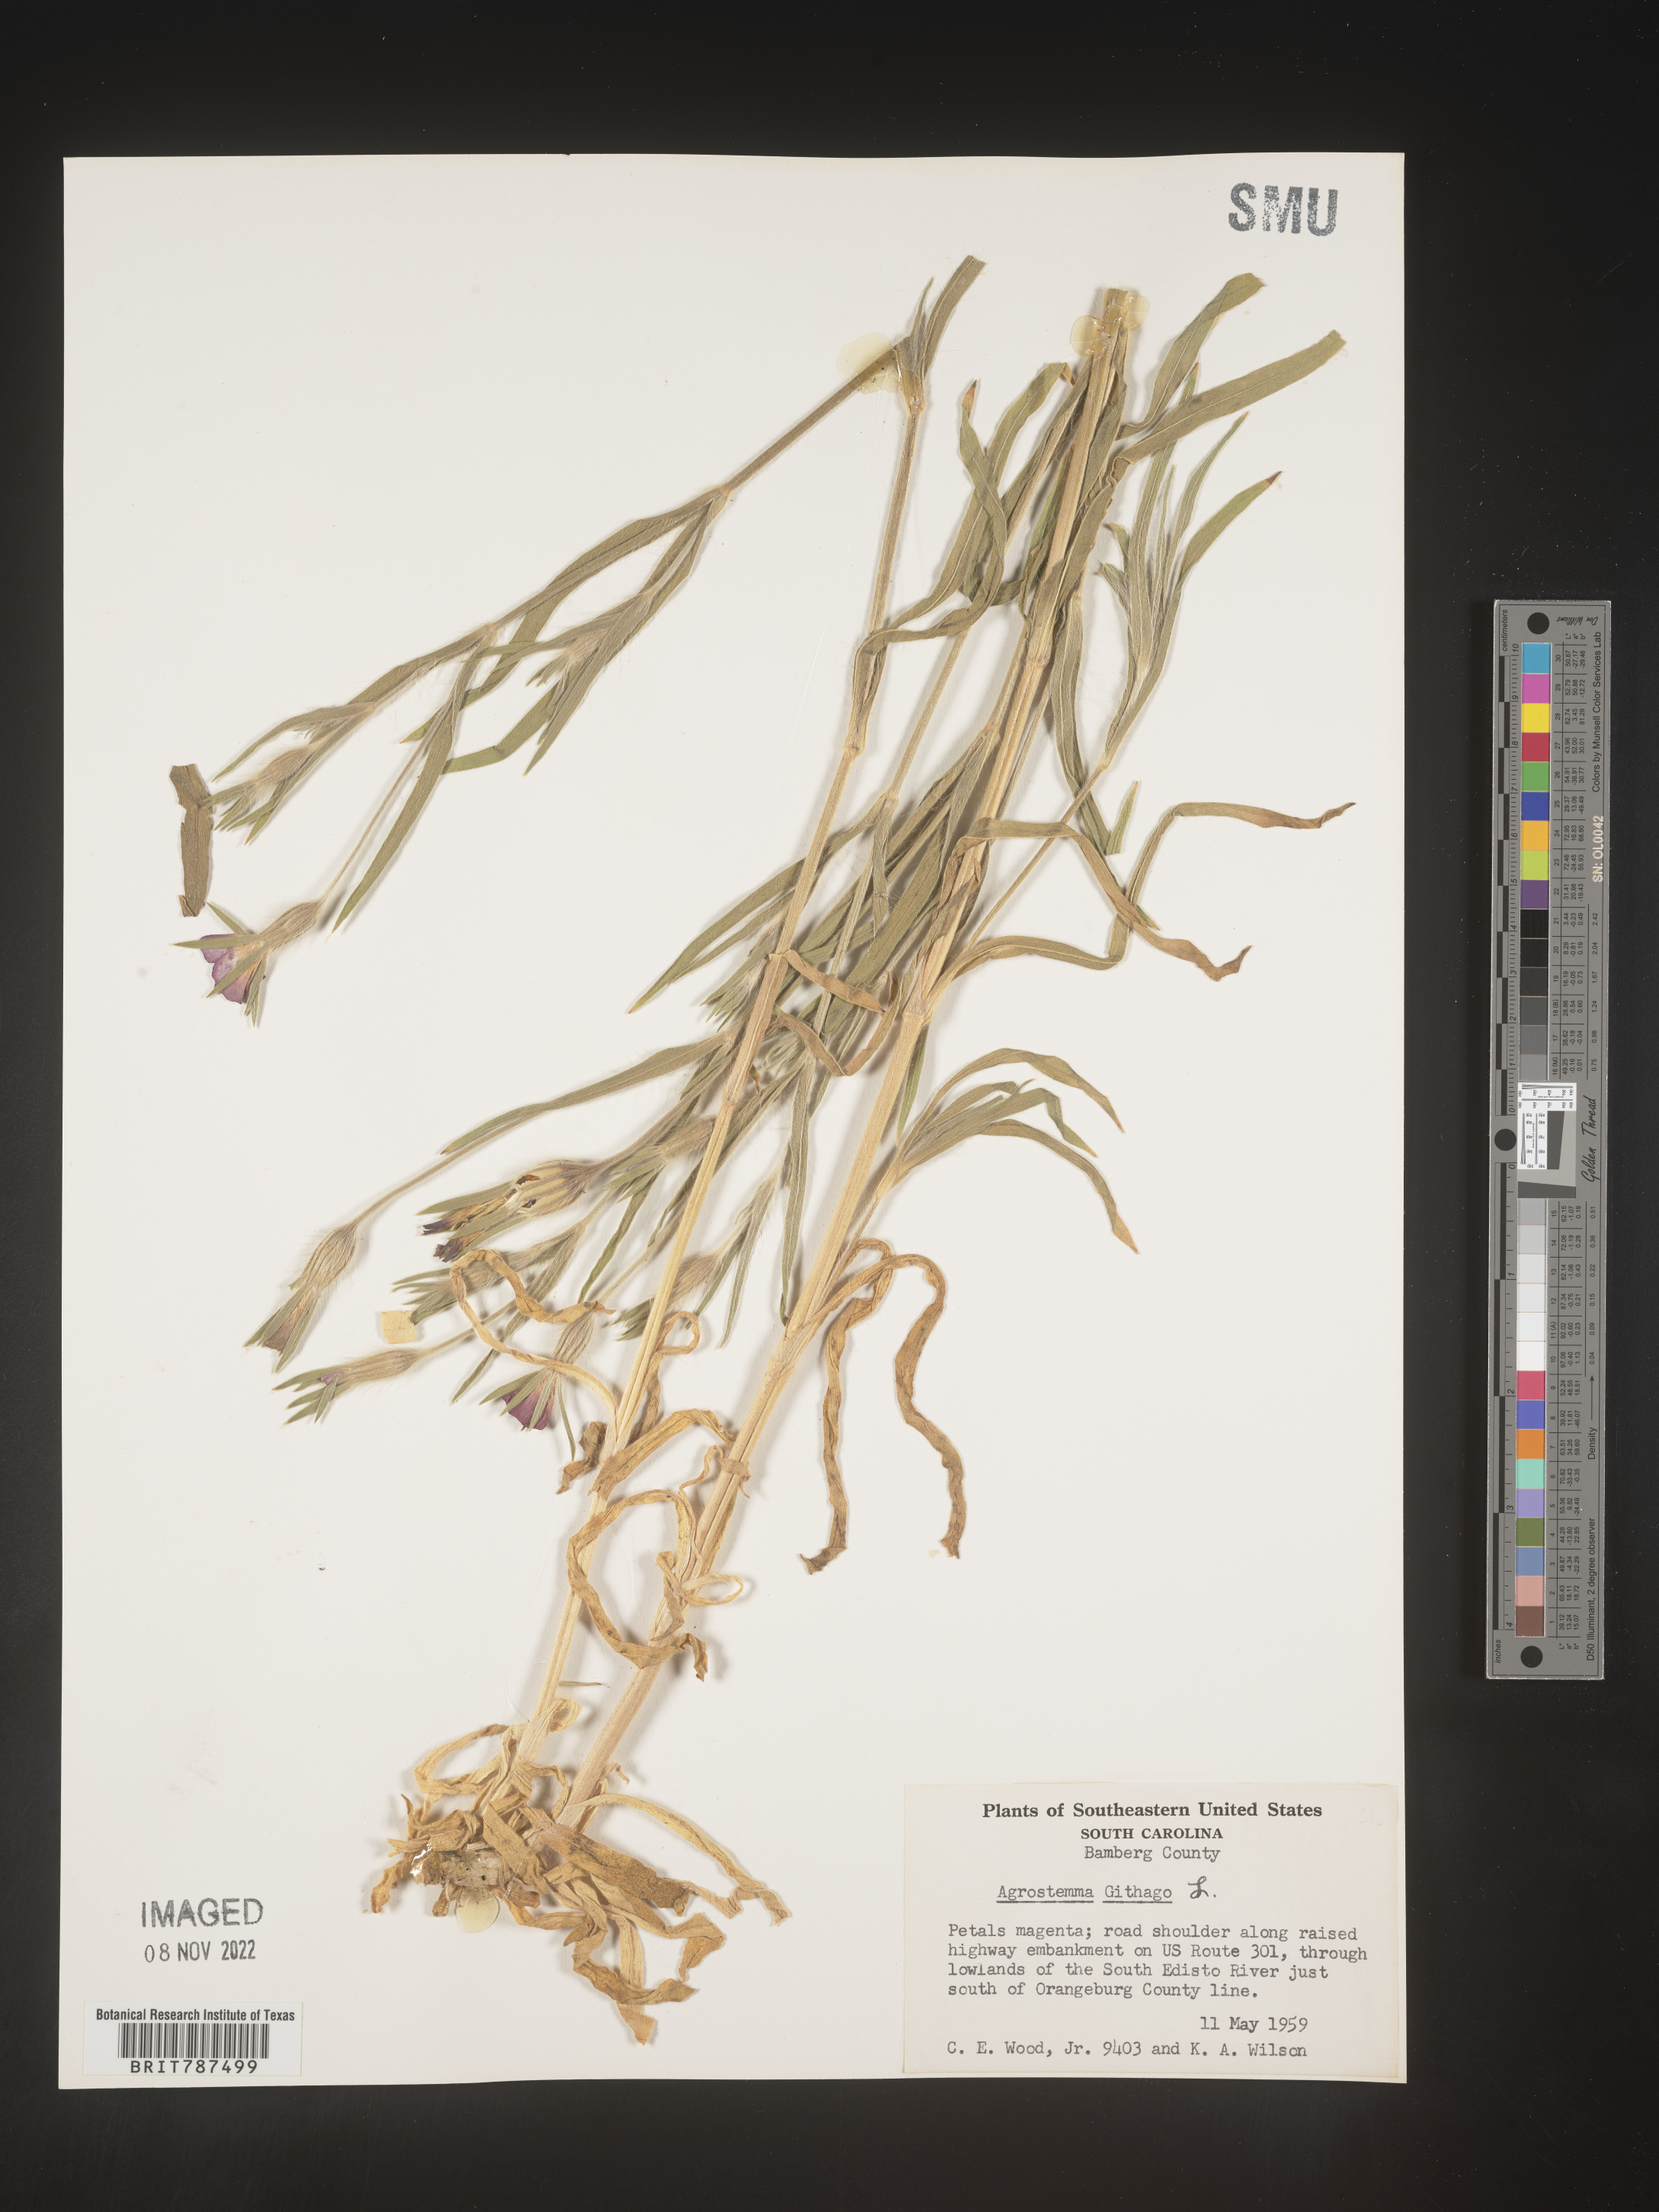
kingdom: Plantae
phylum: Tracheophyta
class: Magnoliopsida
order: Caryophyllales
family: Caryophyllaceae
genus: Agrostemma
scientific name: Agrostemma githago
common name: Common corncockle
